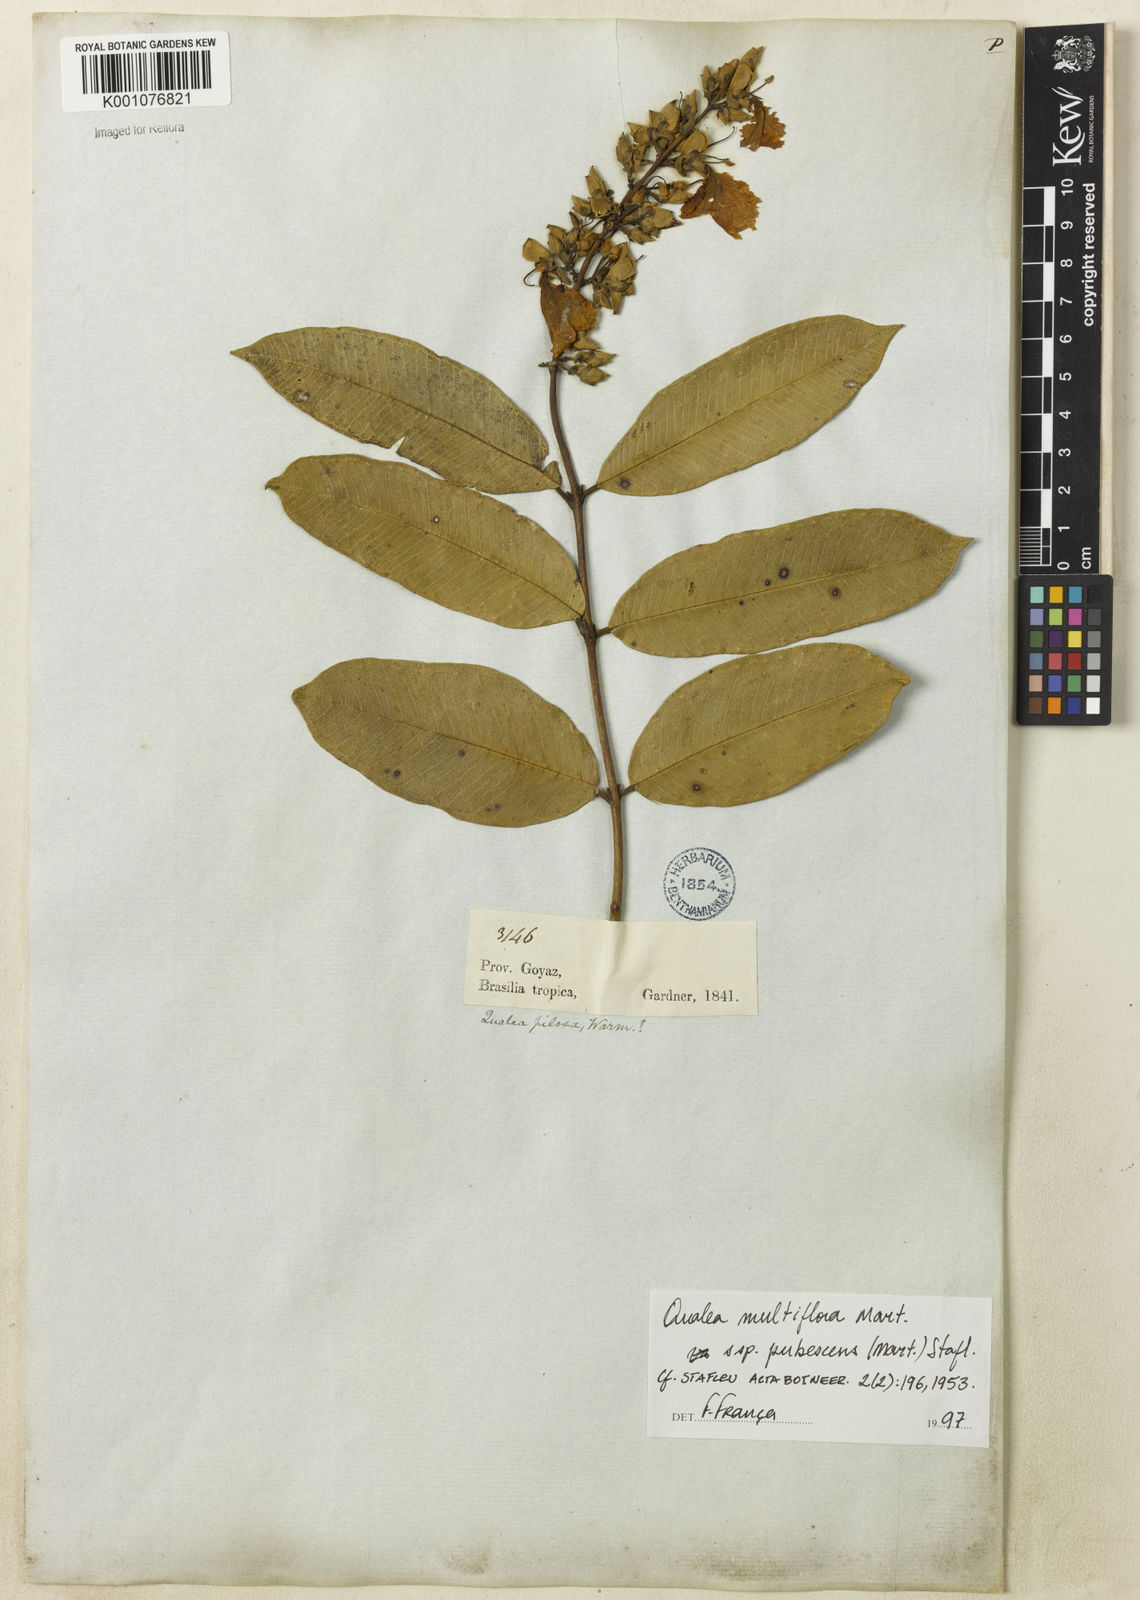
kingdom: Plantae
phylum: Tracheophyta
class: Magnoliopsida
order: Myrtales
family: Vochysiaceae
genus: Qualea
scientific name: Qualea multiflora
